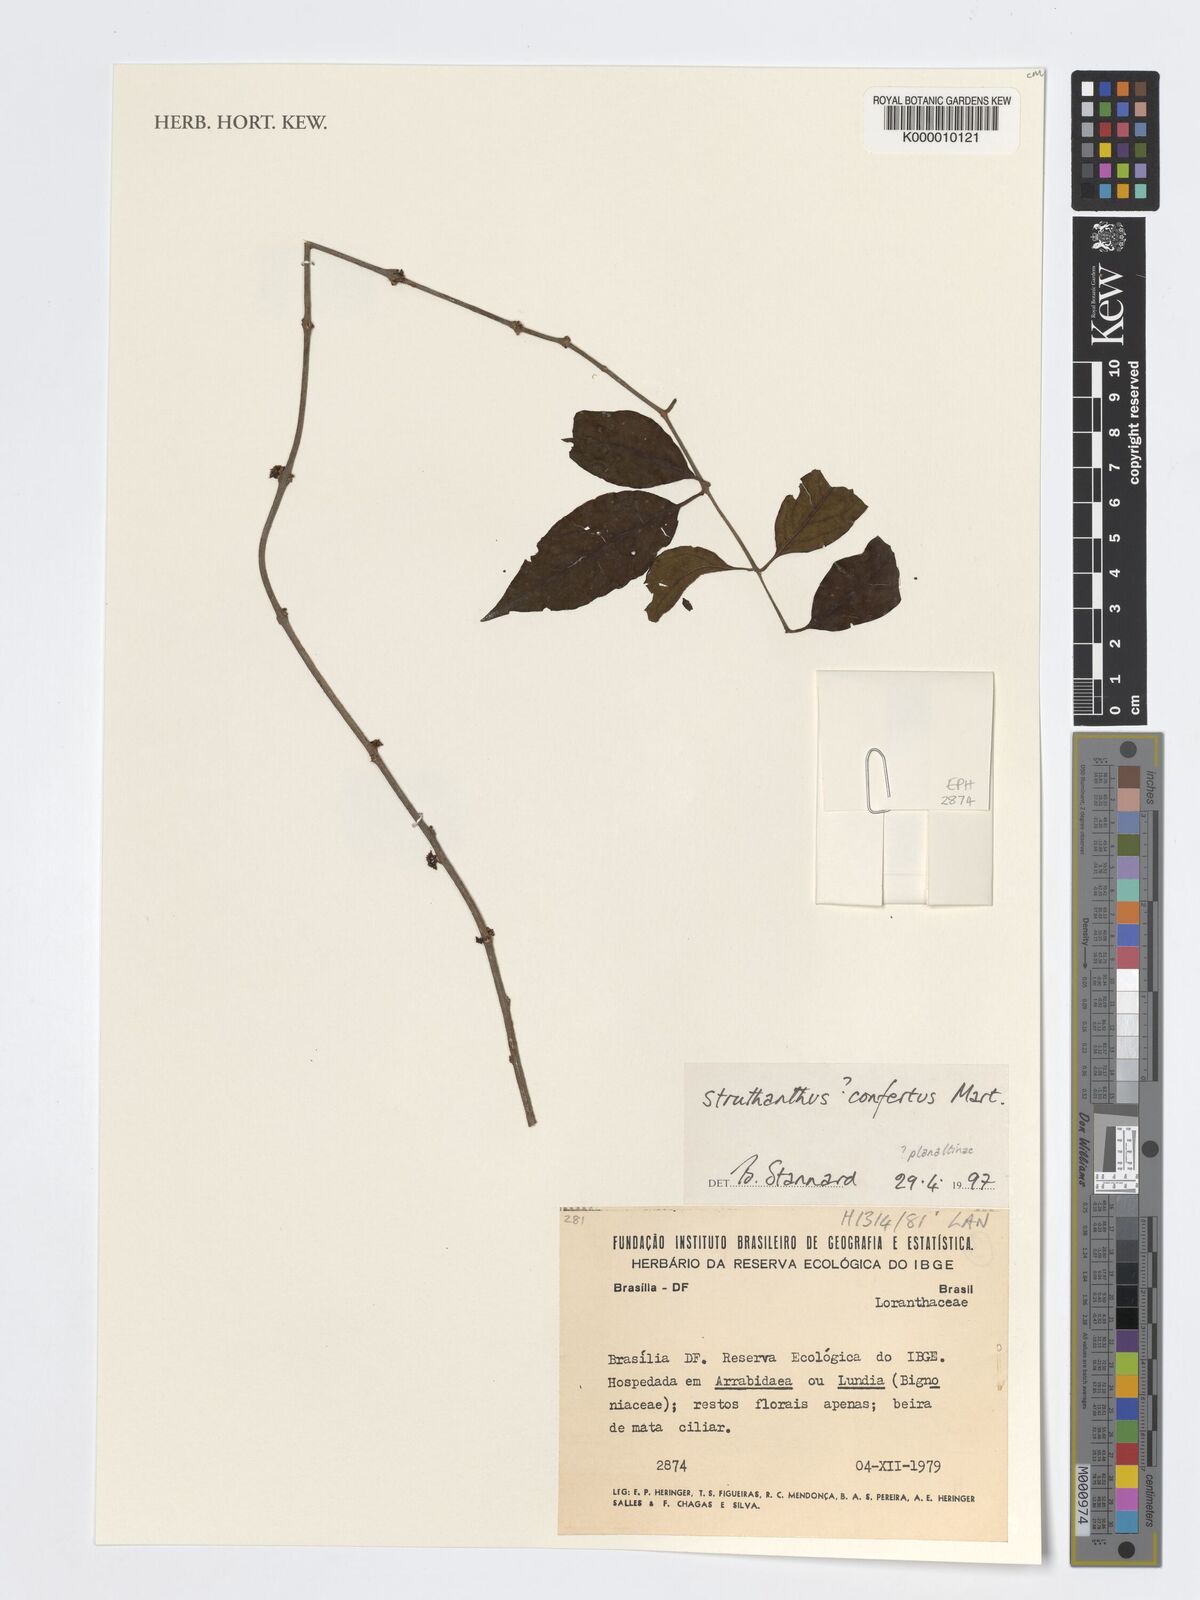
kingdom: Plantae
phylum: Tracheophyta
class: Magnoliopsida
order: Santalales
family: Loranthaceae
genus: Struthanthus
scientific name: Struthanthus confertus
